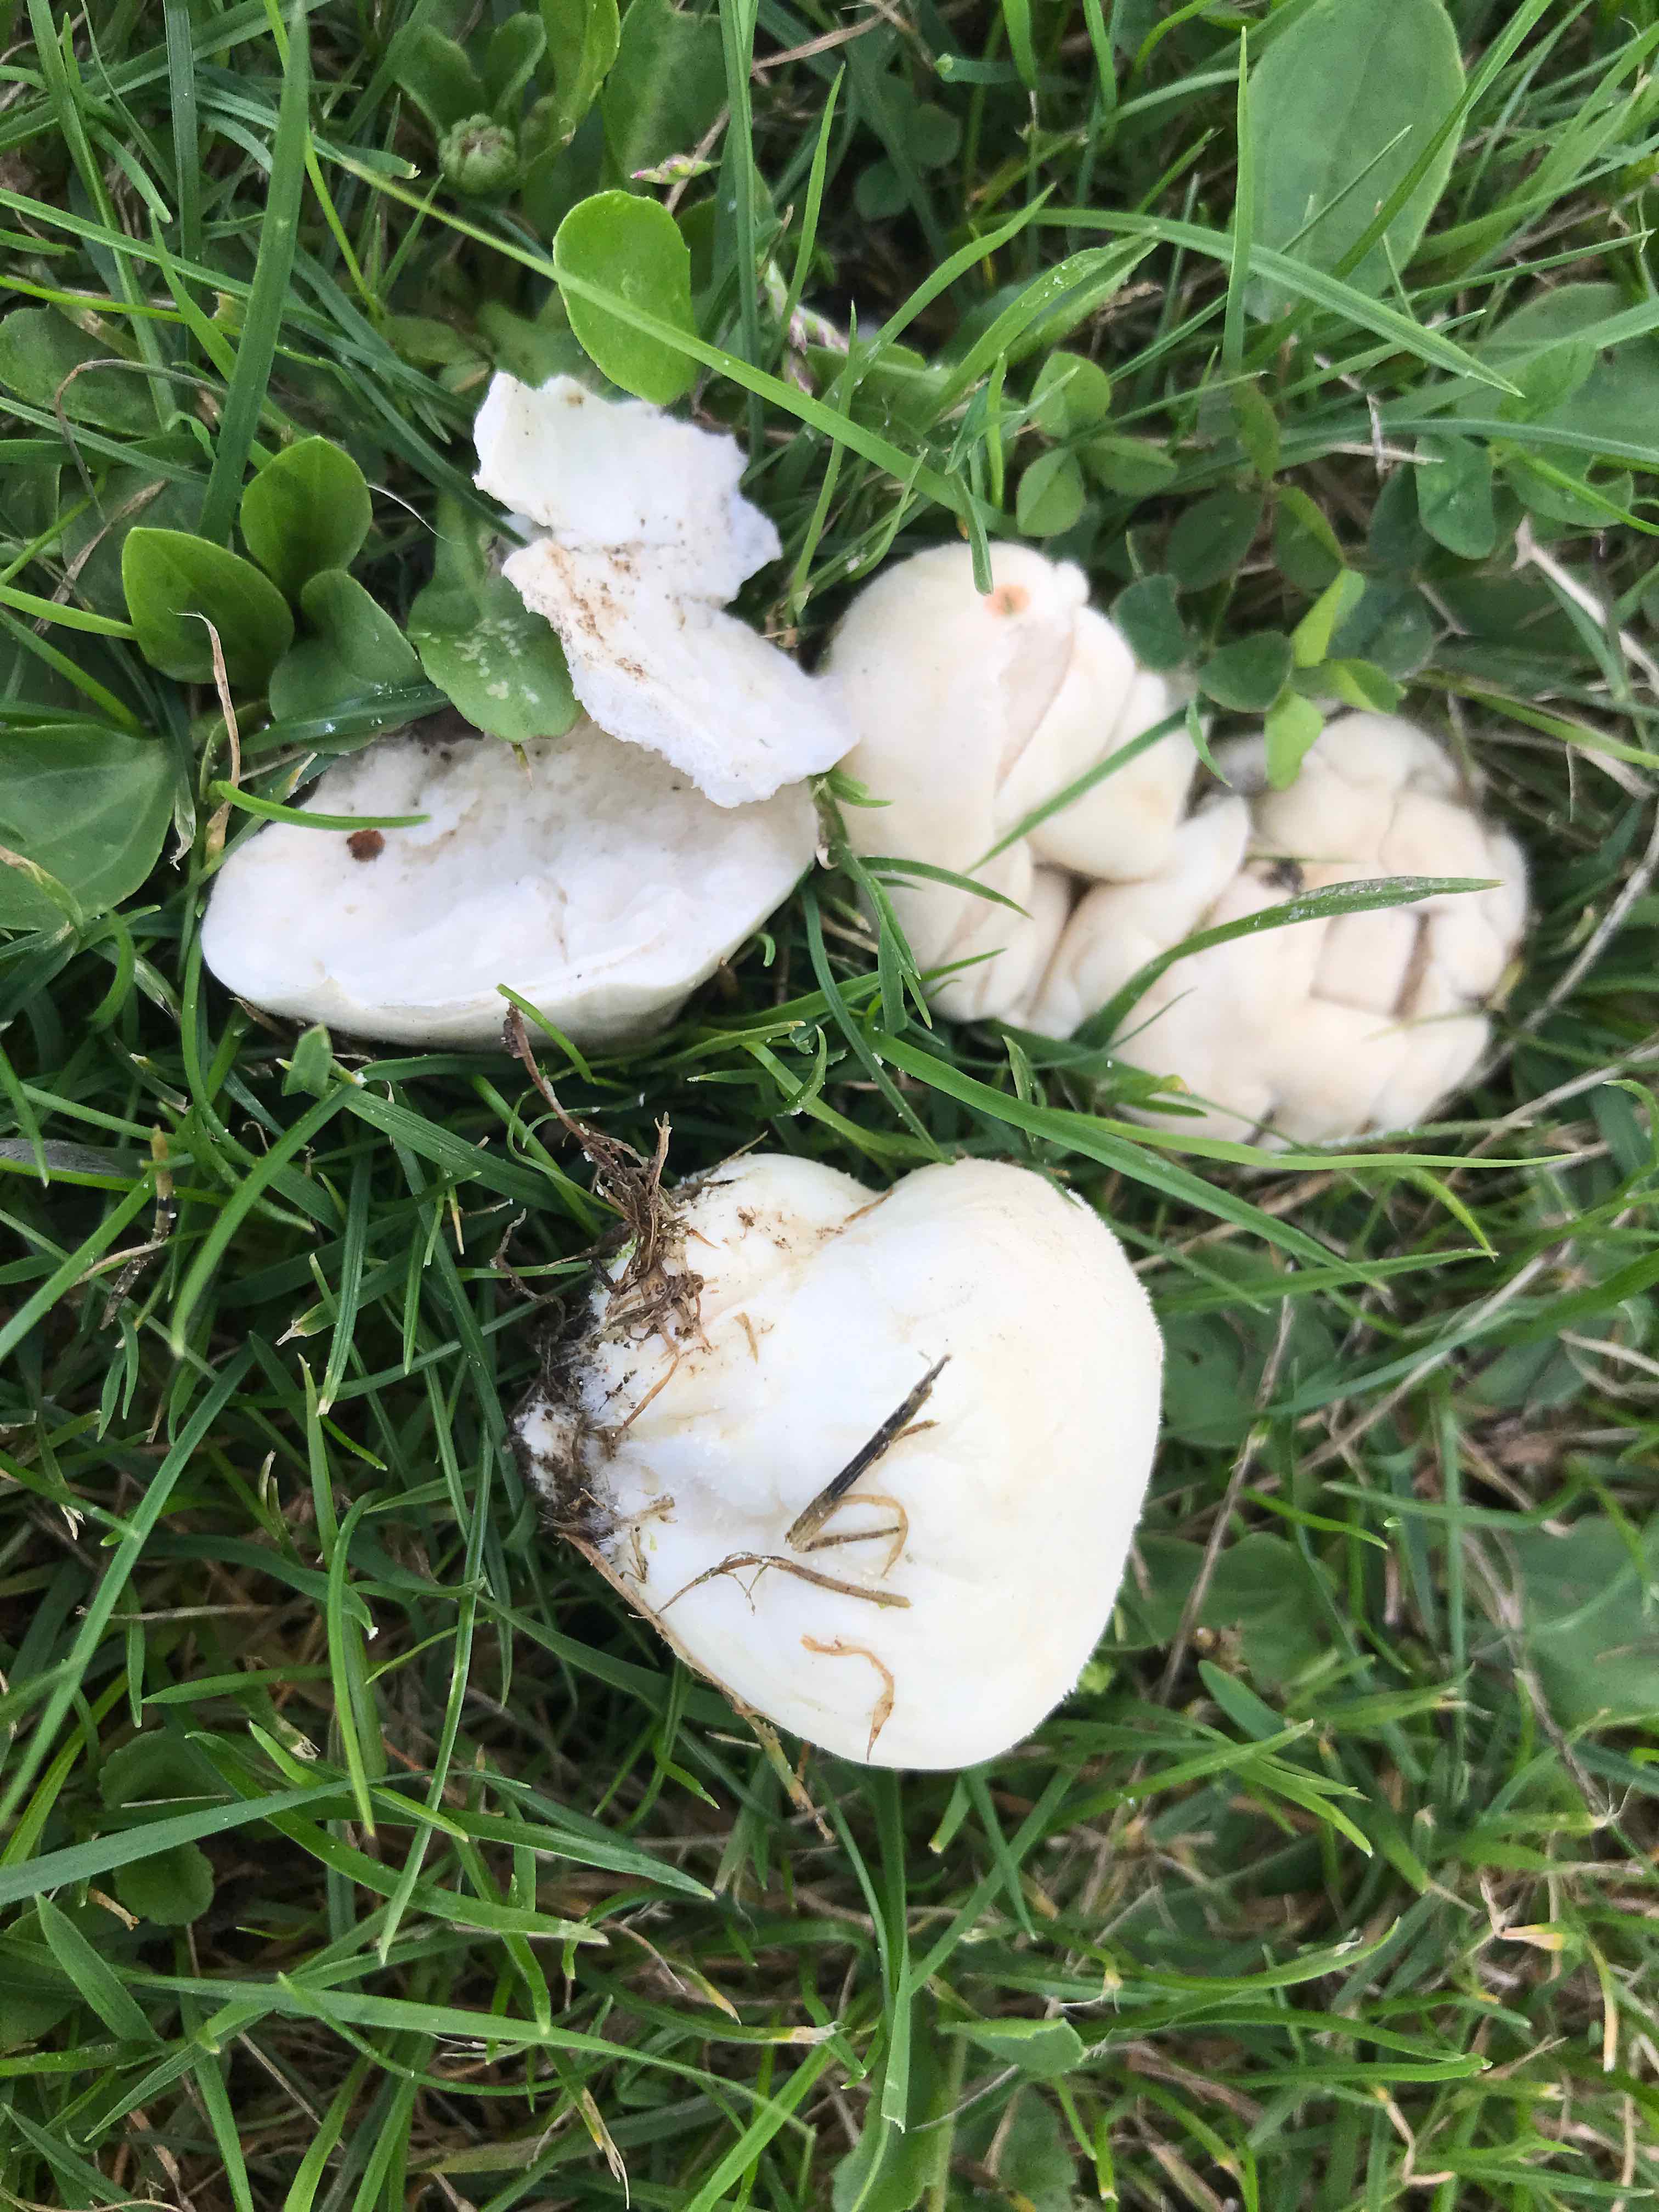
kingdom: Fungi
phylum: Basidiomycota
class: Agaricomycetes
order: Agaricales
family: Lycoperdaceae
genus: Lycoperdon
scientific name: Lycoperdon pratense
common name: flad støvbold
